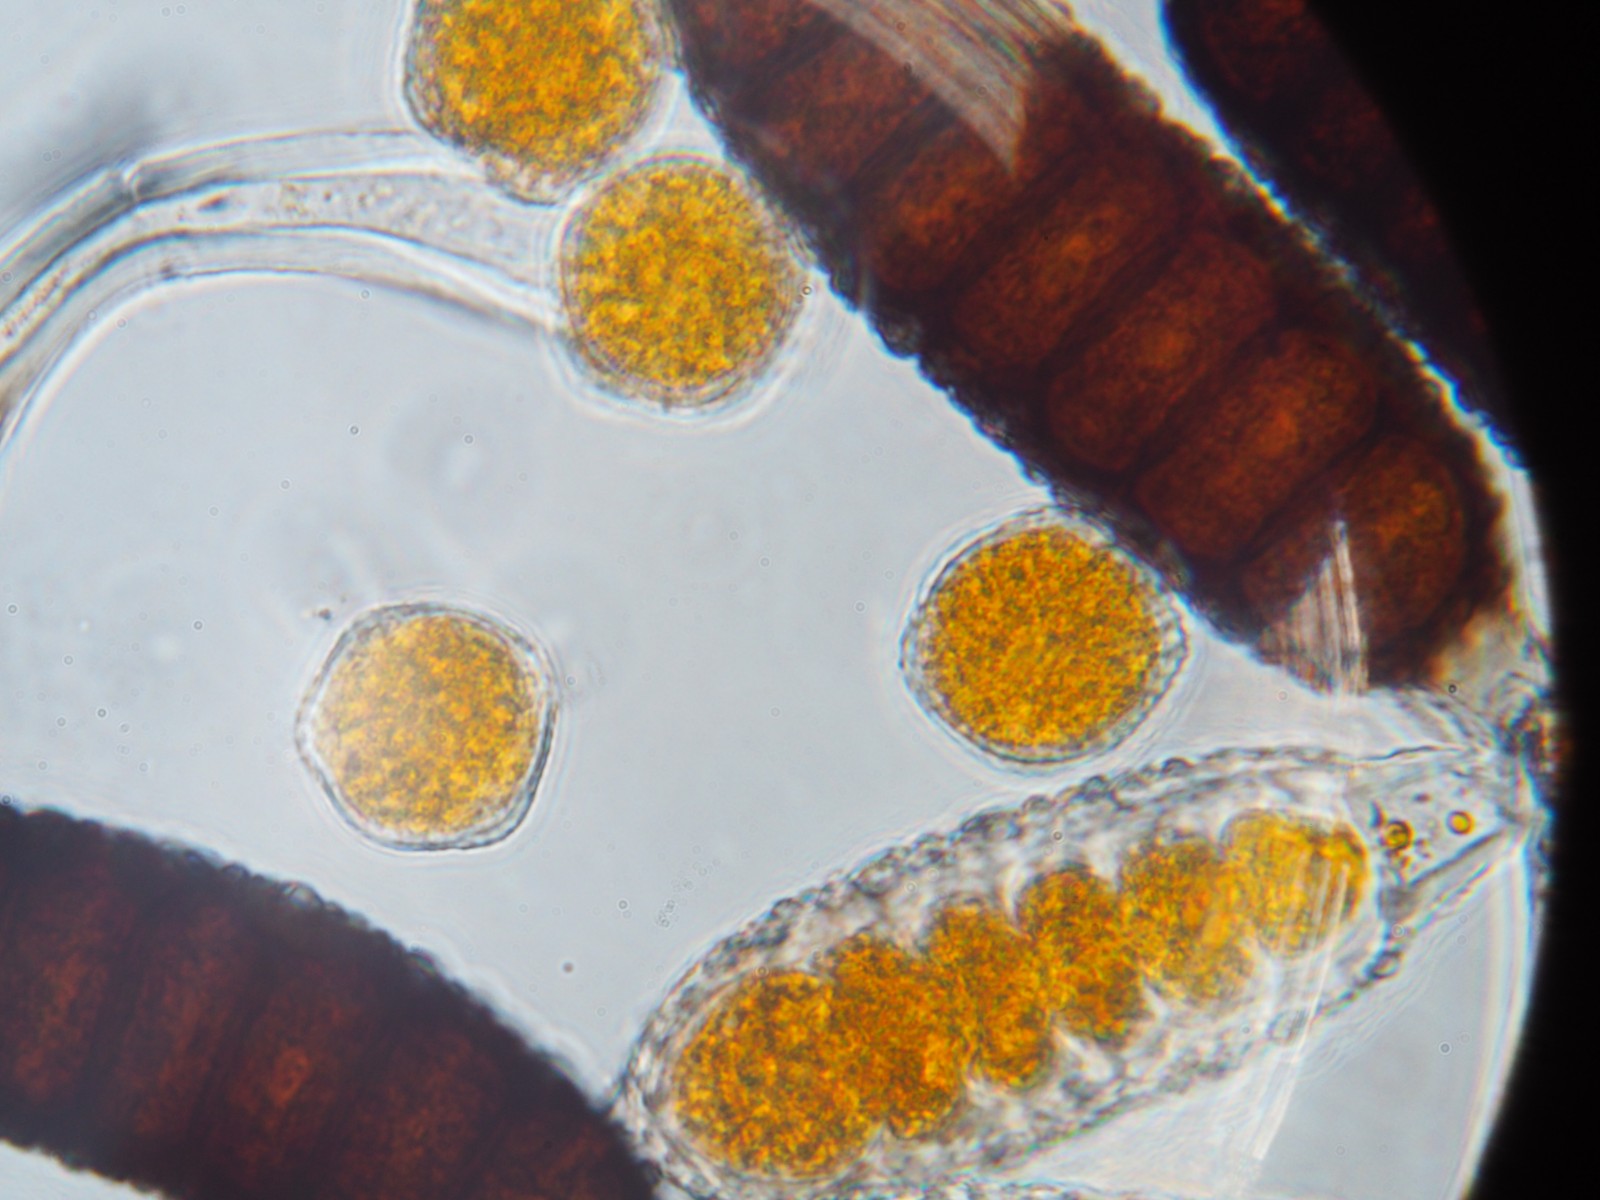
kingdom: Fungi
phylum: Basidiomycota
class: Pucciniomycetes
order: Pucciniales
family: Phragmidiaceae
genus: Phragmidium
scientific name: Phragmidium tuberculatum
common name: Rose rust
